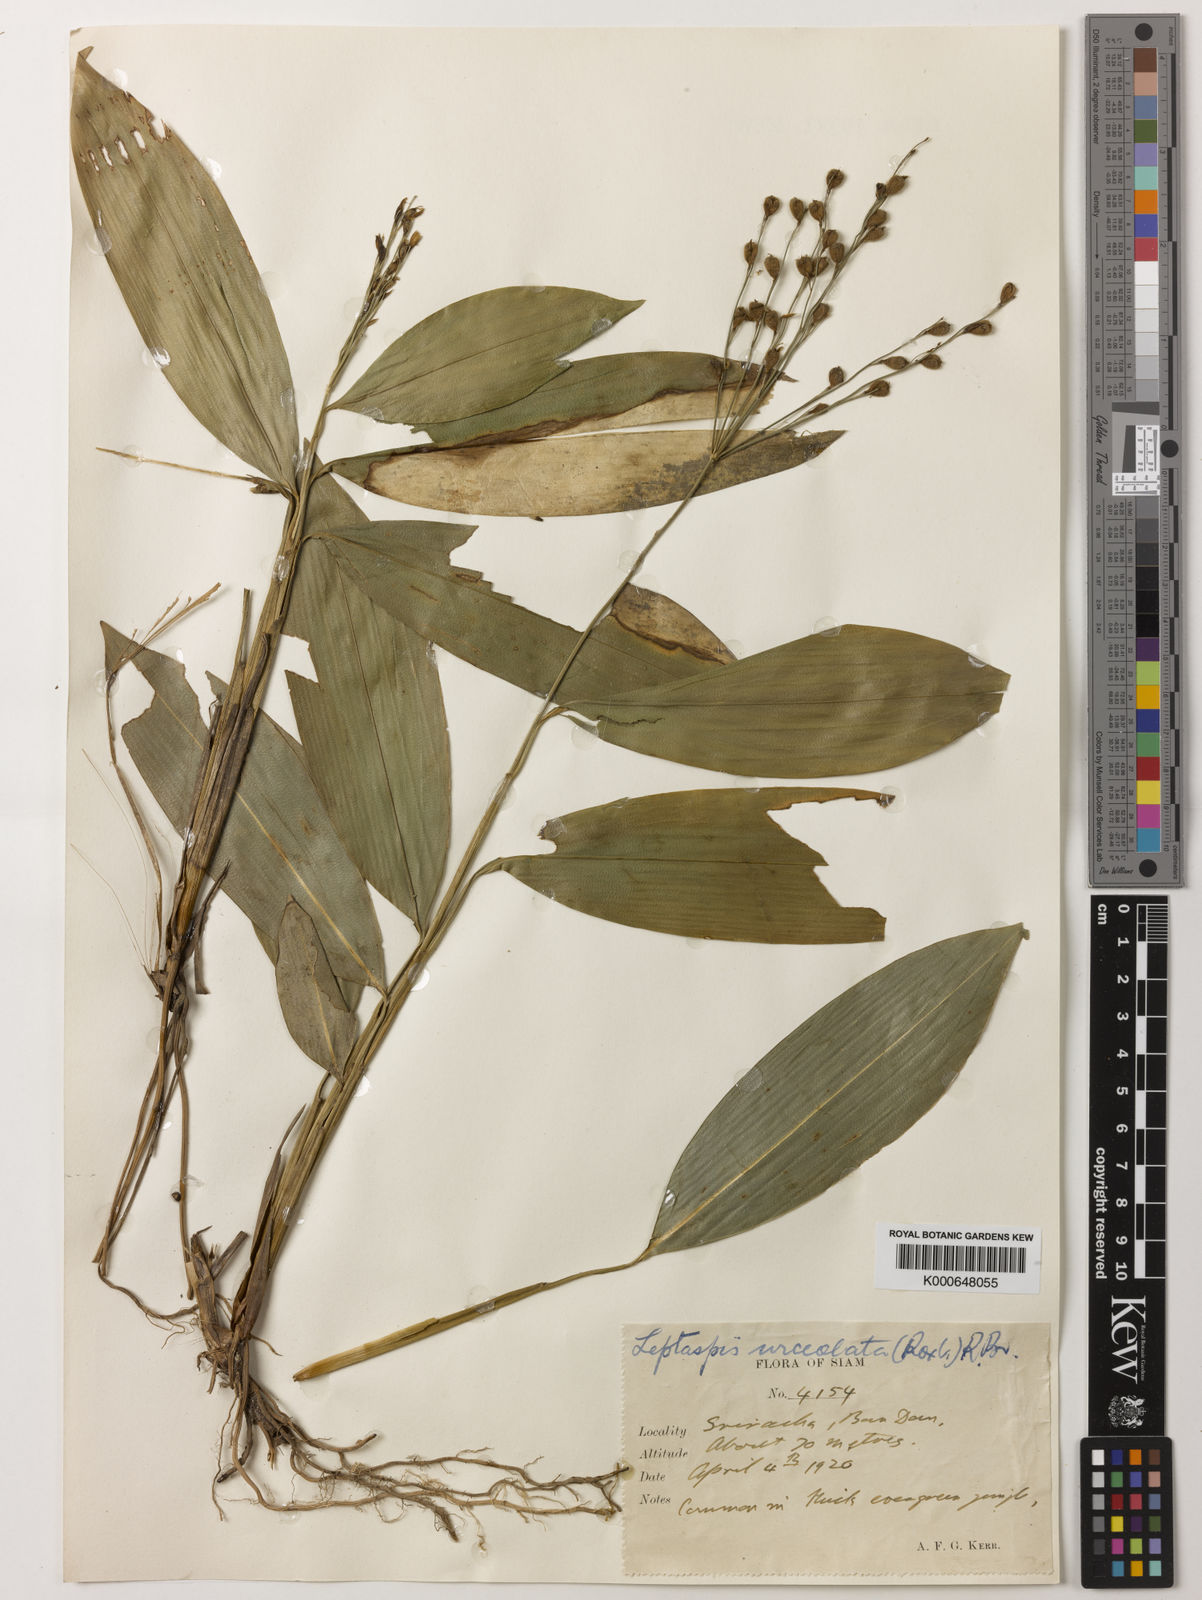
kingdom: Plantae
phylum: Tracheophyta
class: Liliopsida
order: Poales
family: Poaceae
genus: Scrotochloa
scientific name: Scrotochloa urceolata
